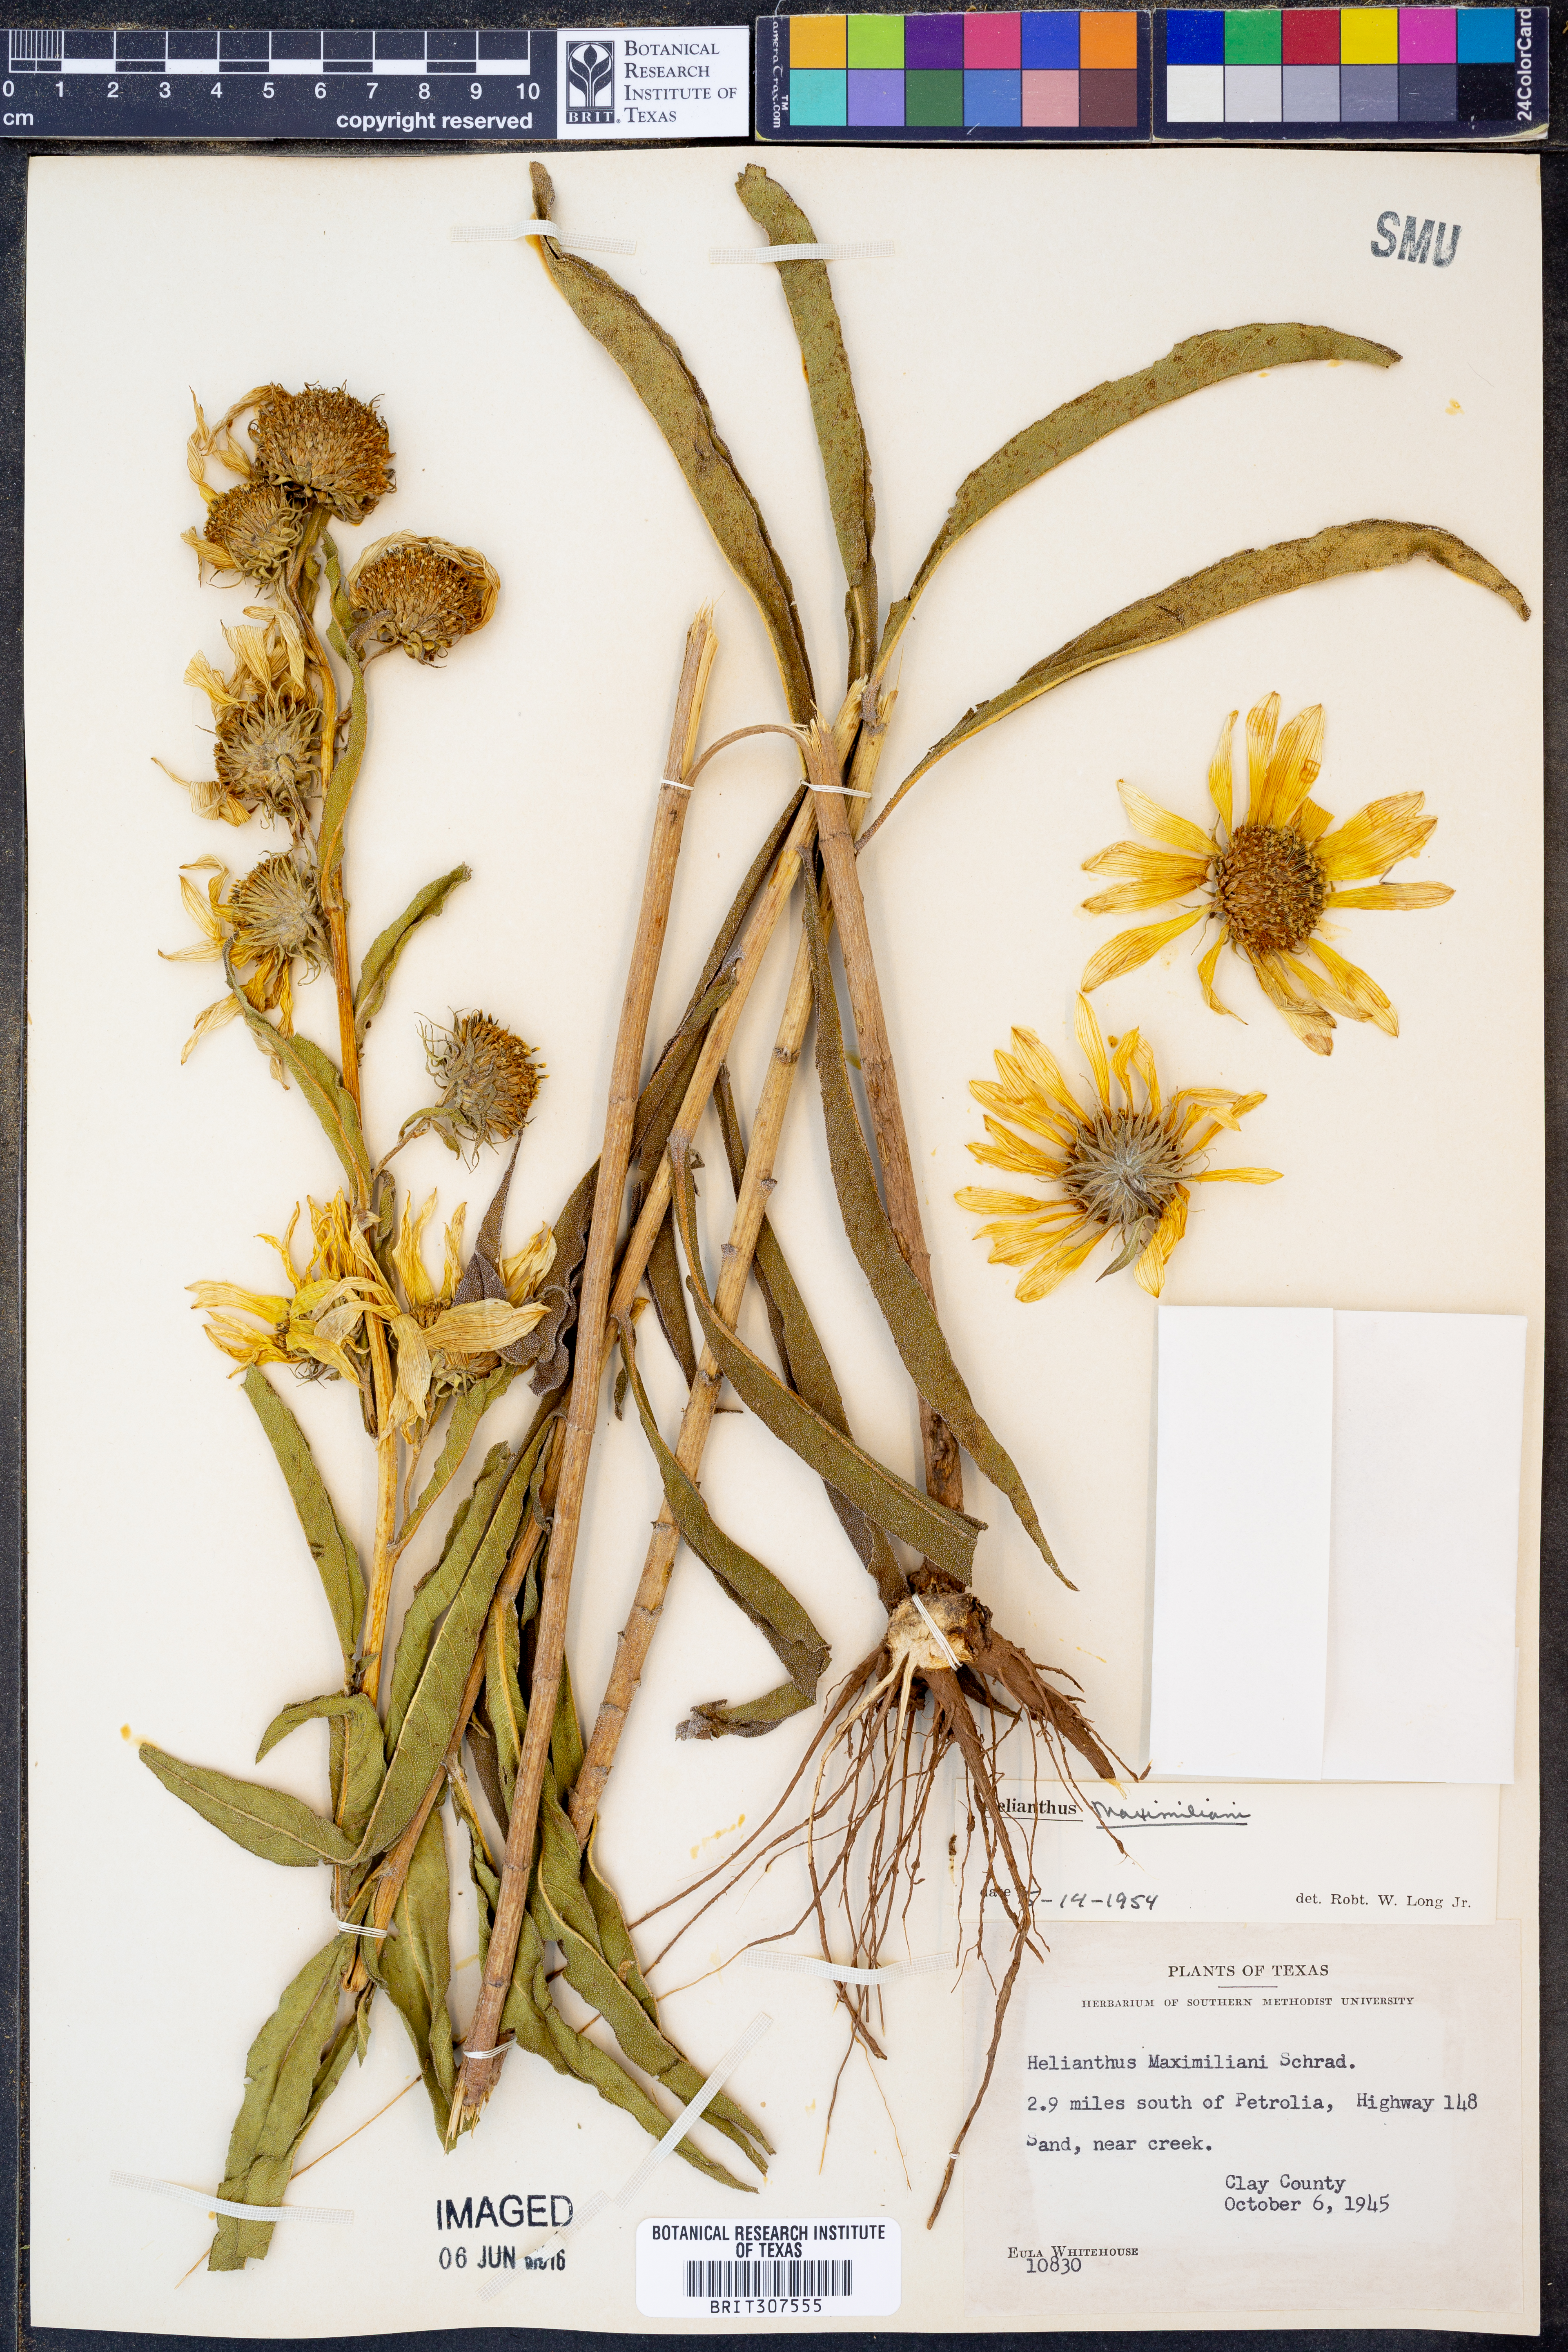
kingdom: Plantae
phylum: Tracheophyta
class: Magnoliopsida
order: Asterales
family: Asteraceae
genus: Helianthus
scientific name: Helianthus maximiliani
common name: Maximilian's sunflower
